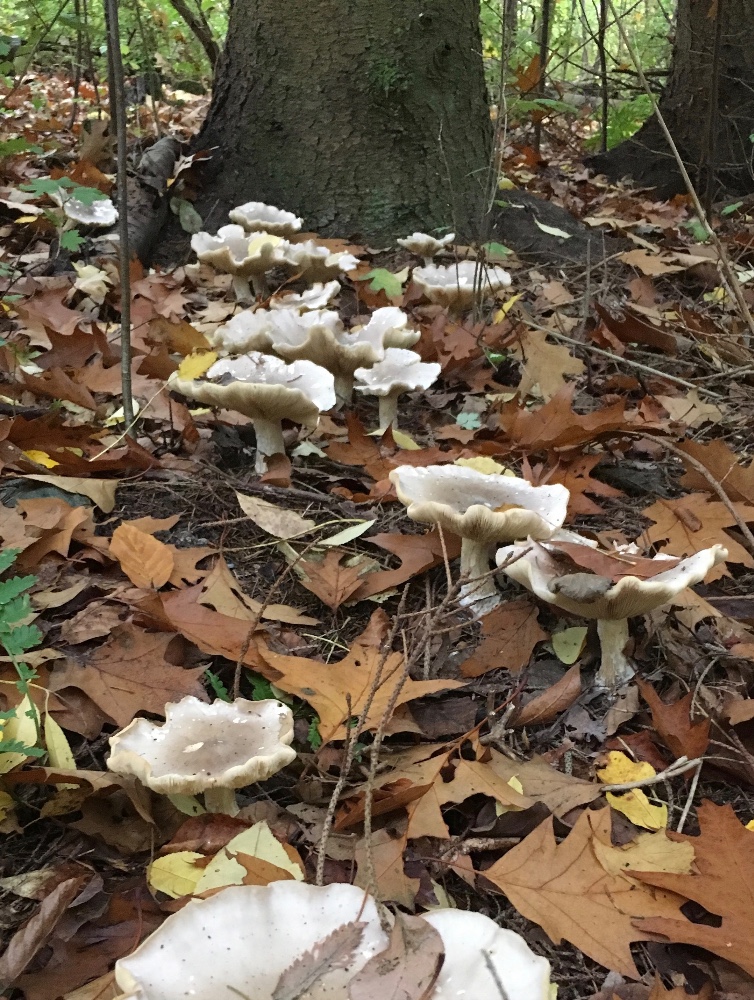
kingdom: Fungi
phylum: Basidiomycota
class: Agaricomycetes
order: Agaricales
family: Tricholomataceae
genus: Clitocybe
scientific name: Clitocybe nebularis
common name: tåge-tragthat
